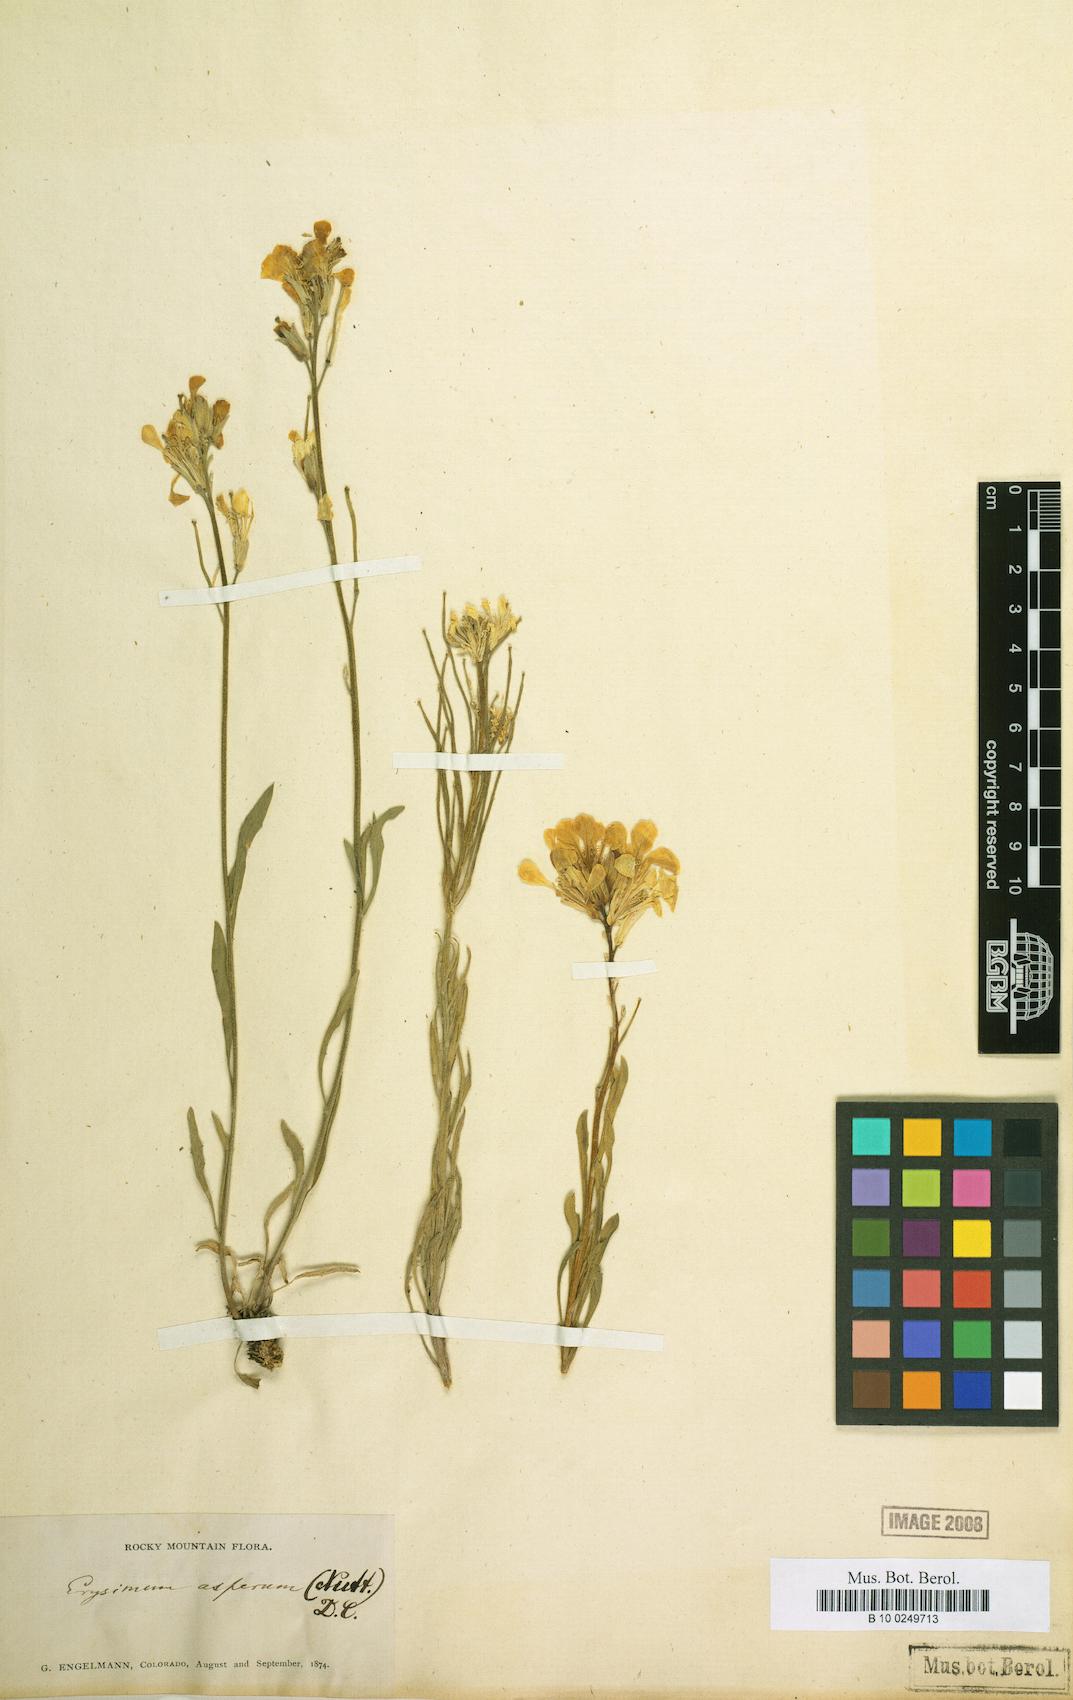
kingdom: Plantae
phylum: Tracheophyta
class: Magnoliopsida
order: Brassicales
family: Brassicaceae
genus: Erysimum
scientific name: Erysimum capitatum
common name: Western wallflower
